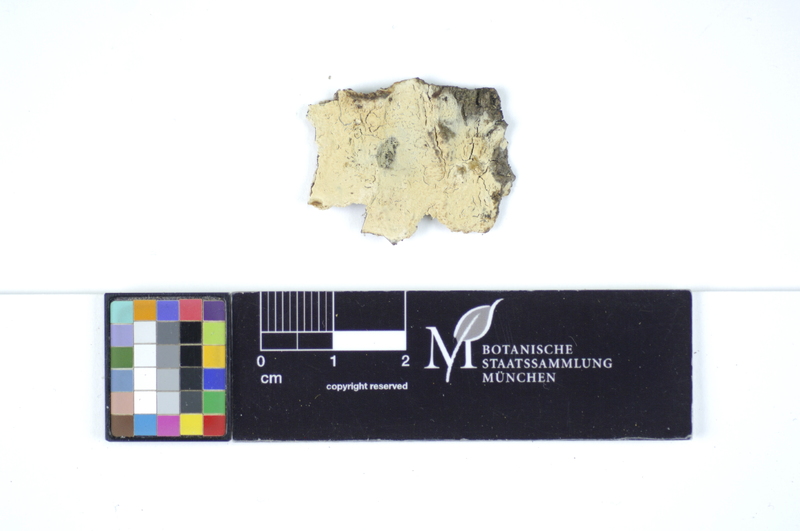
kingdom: Fungi
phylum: Basidiomycota
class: Agaricomycetes
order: Polyporales
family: Hyphodermataceae
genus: Hyphoderma
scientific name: Hyphoderma transiens
